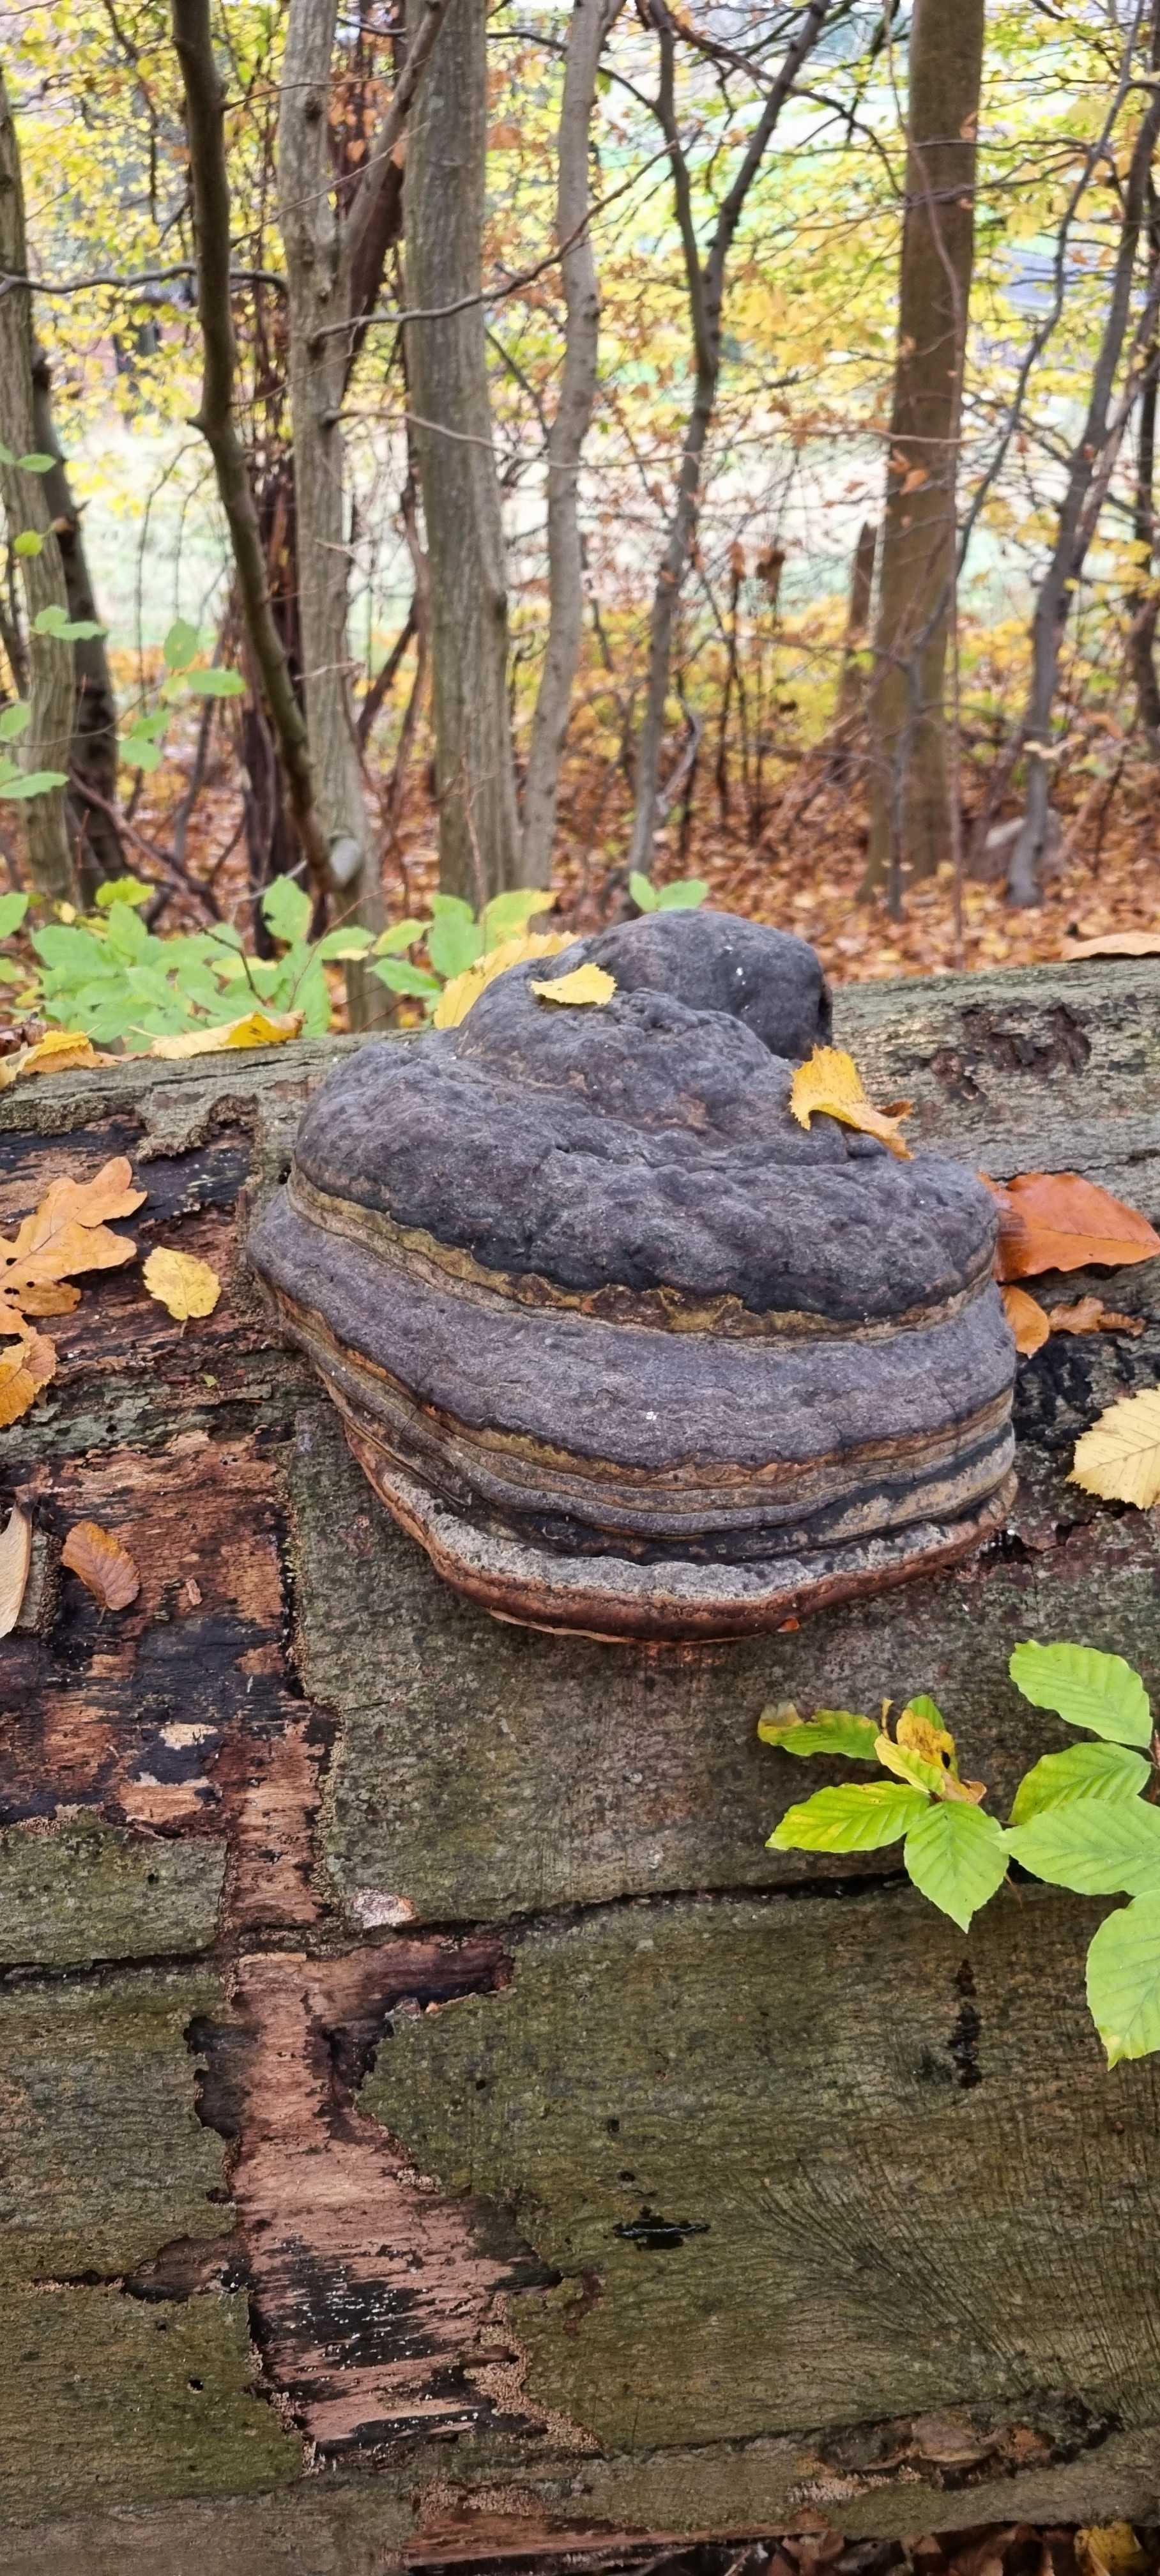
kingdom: Fungi
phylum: Basidiomycota
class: Agaricomycetes
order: Polyporales
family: Polyporaceae
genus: Fomes
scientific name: Fomes fomentarius
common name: tøndersvamp
